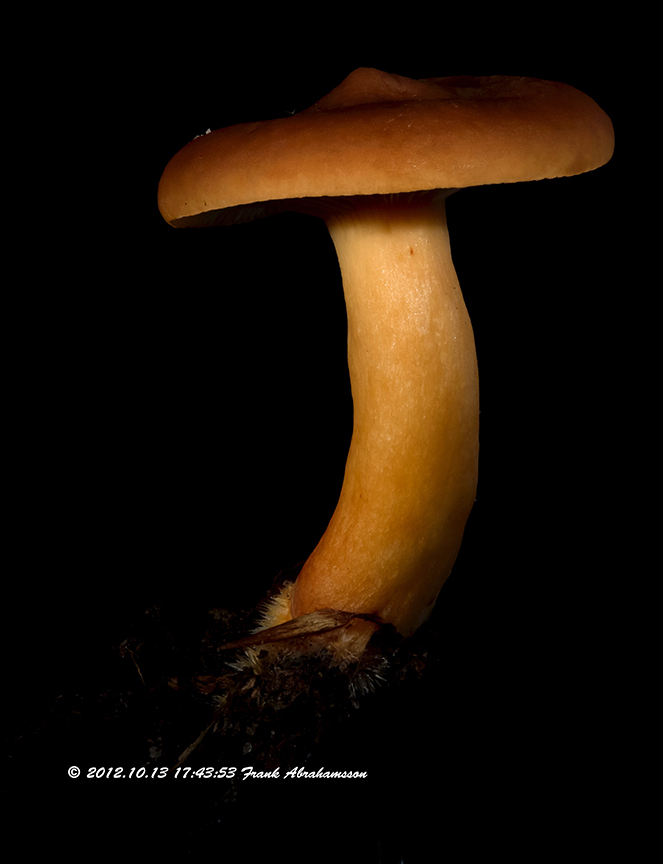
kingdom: Fungi
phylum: Basidiomycota
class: Agaricomycetes
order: Russulales
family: Russulaceae
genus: Lactarius
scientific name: Lactarius subdulcis
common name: sødlig mælkehat
